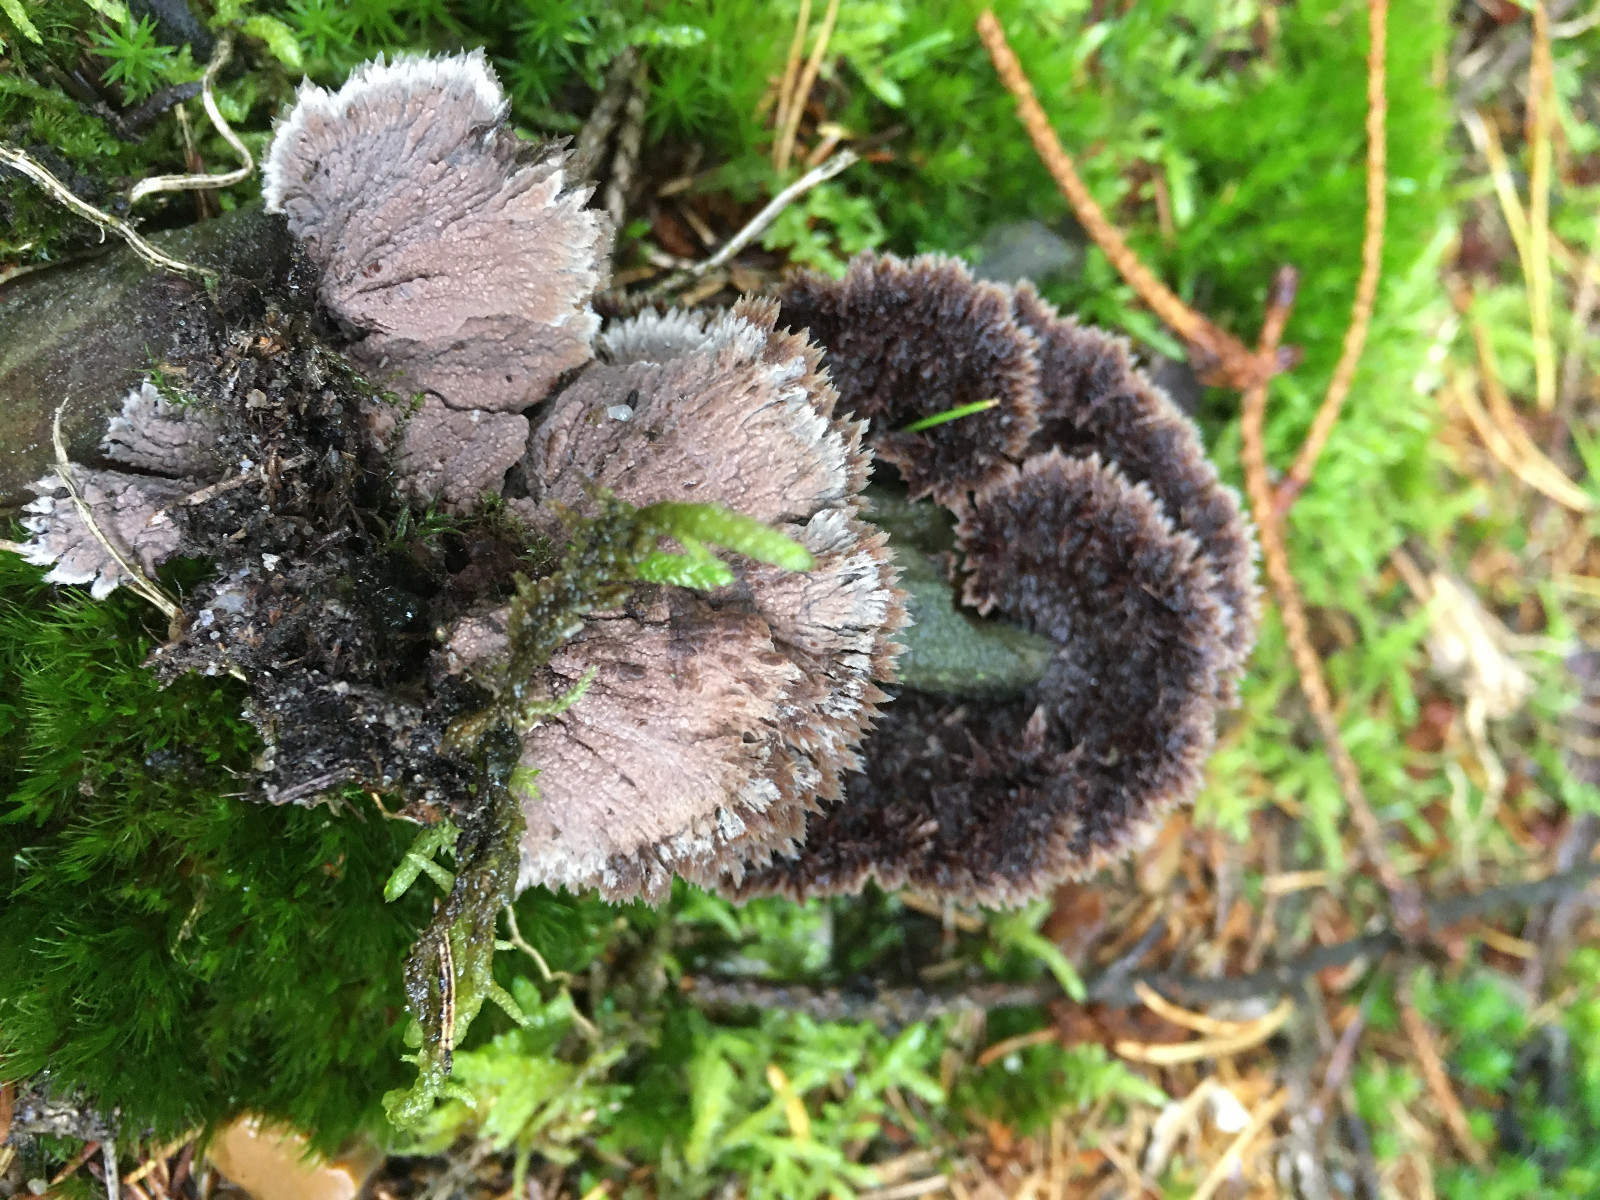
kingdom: Fungi
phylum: Basidiomycota
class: Agaricomycetes
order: Thelephorales
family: Thelephoraceae
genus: Thelephora
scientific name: Thelephora terrestris
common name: fliget frynsesvamp
